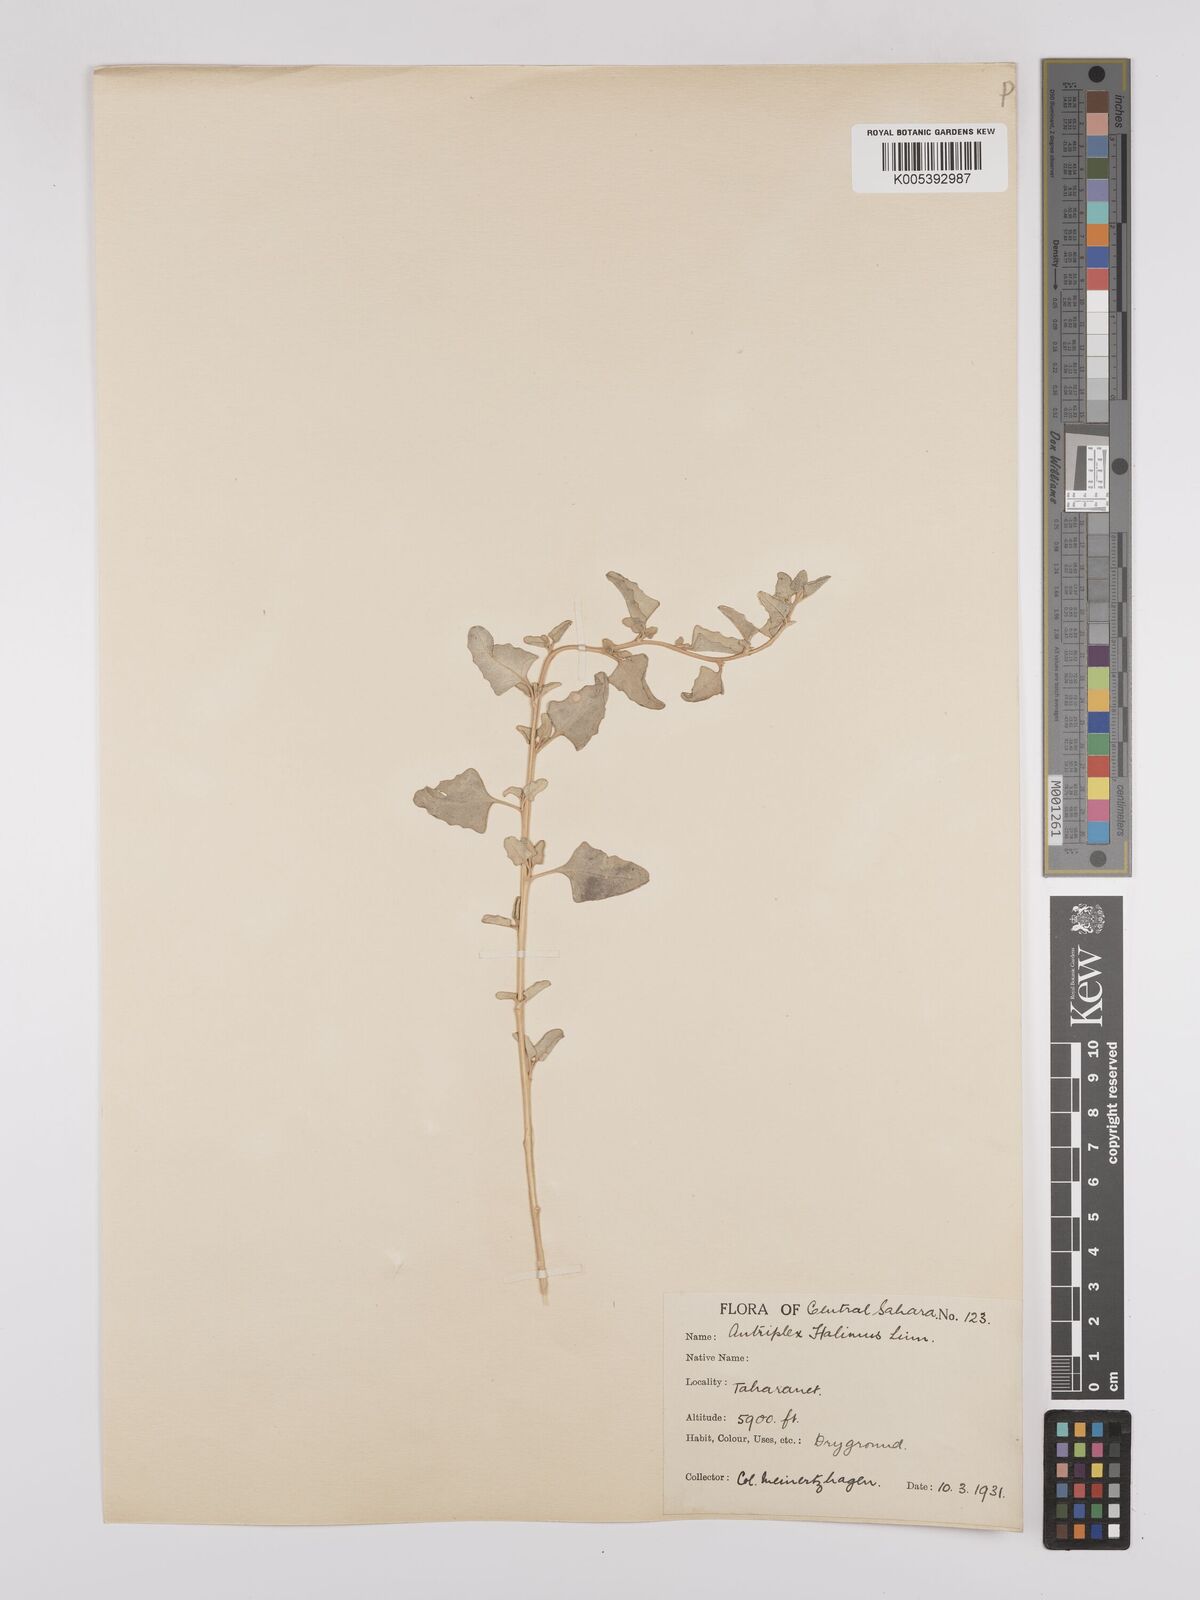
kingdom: Plantae
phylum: Tracheophyta
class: Magnoliopsida
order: Caryophyllales
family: Amaranthaceae
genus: Atriplex
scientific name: Atriplex
